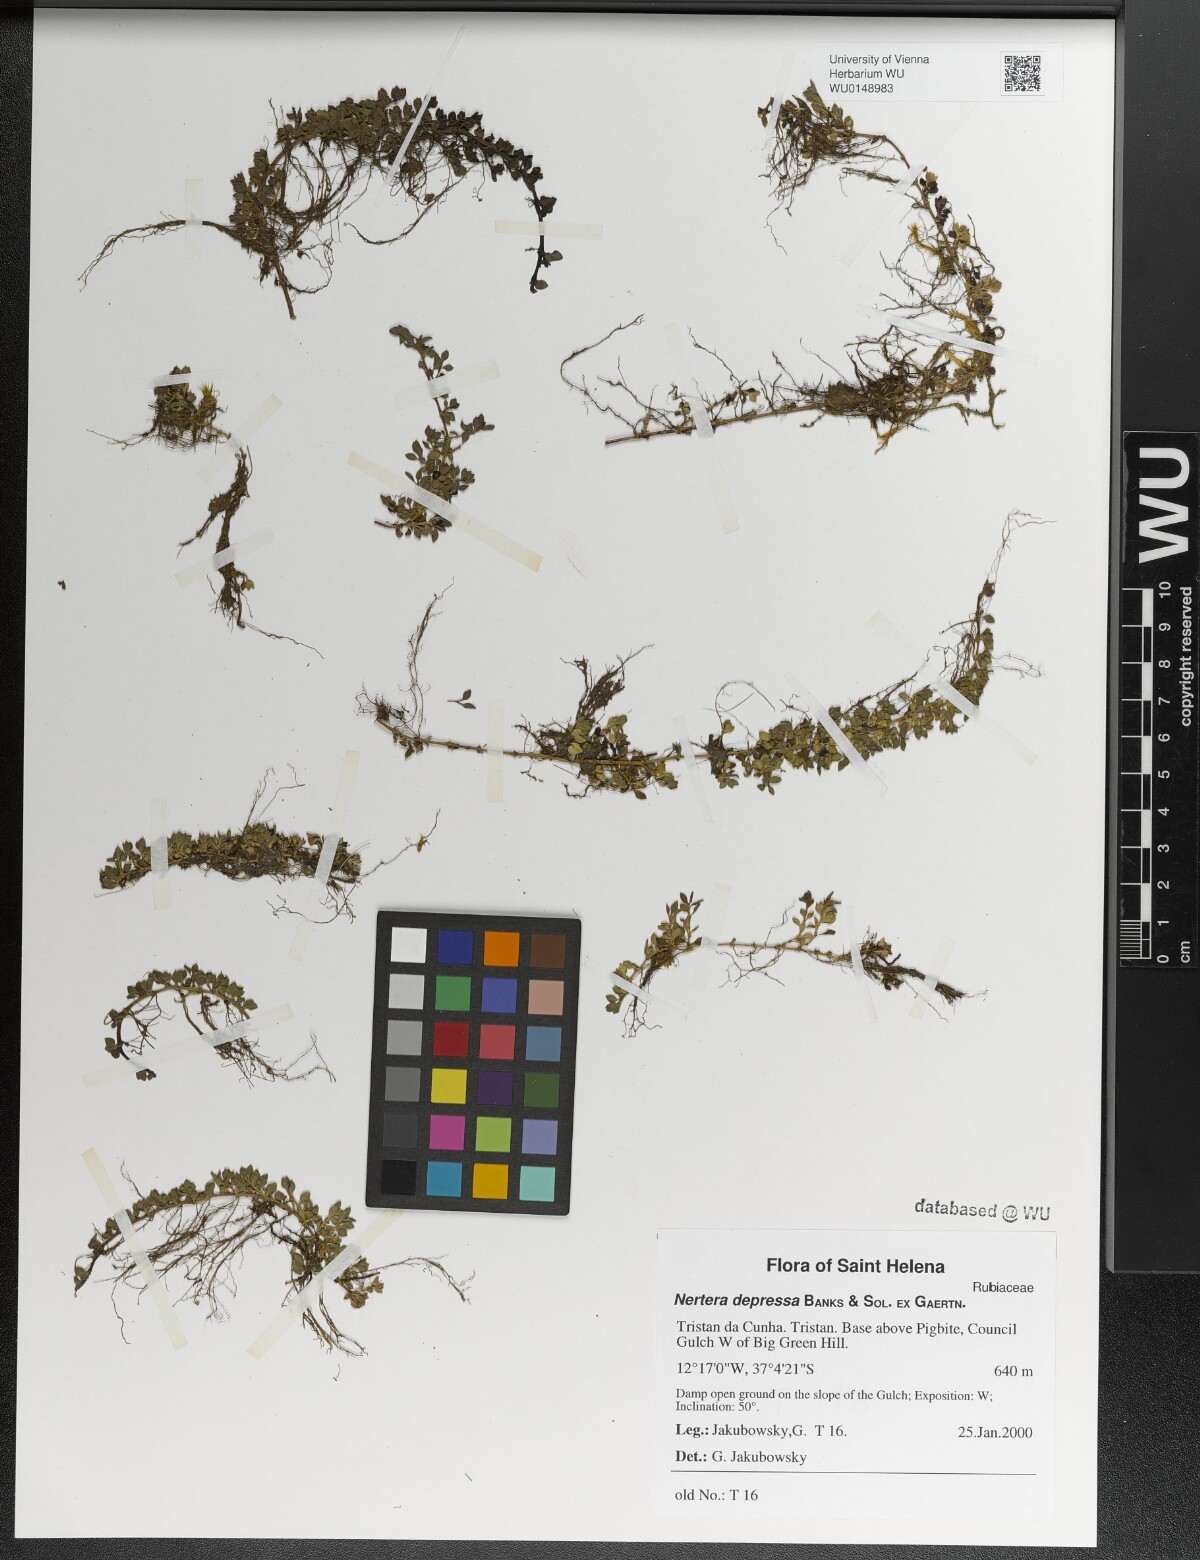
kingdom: Plantae
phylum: Tracheophyta
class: Magnoliopsida
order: Gentianales
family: Rubiaceae
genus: Nertera
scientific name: Nertera granadensis
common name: Beadplant
